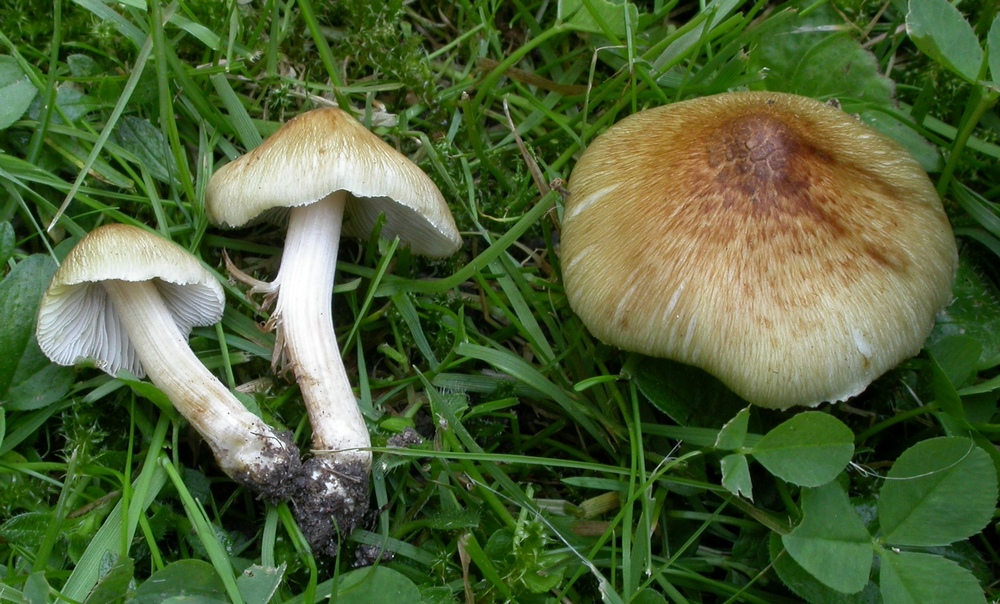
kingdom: Fungi
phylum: Basidiomycota
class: Agaricomycetes
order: Agaricales
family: Inocybaceae
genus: Pseudosperma
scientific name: Pseudosperma
